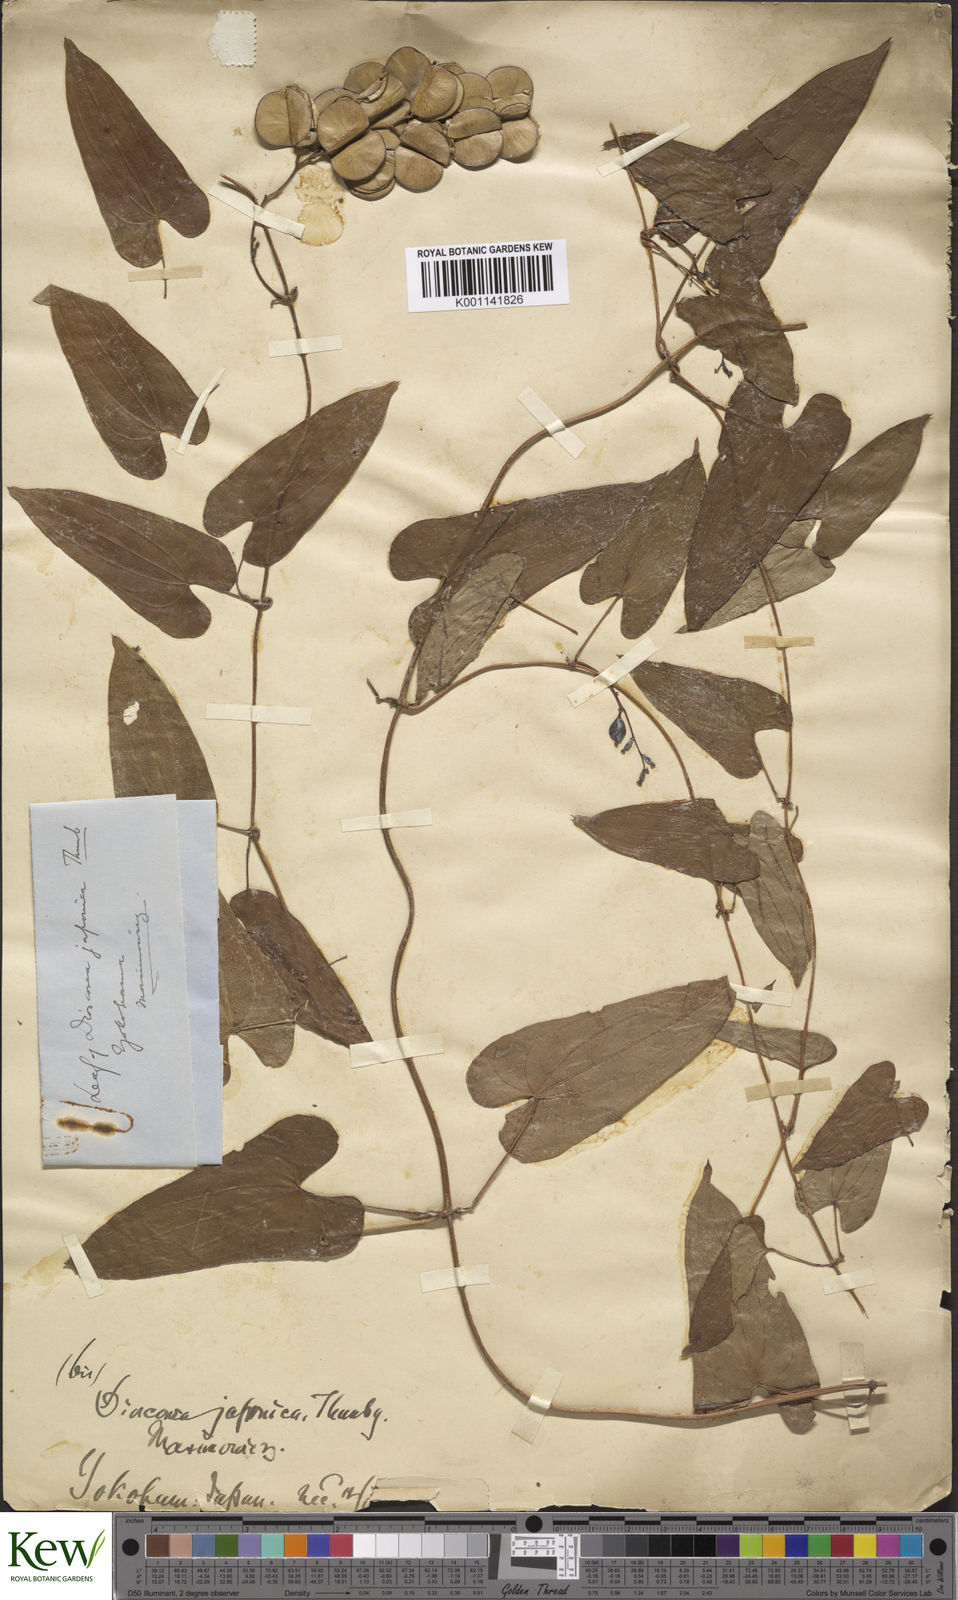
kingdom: Plantae
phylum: Tracheophyta
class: Liliopsida
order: Dioscoreales
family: Dioscoreaceae
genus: Dioscorea
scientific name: Dioscorea japonica
